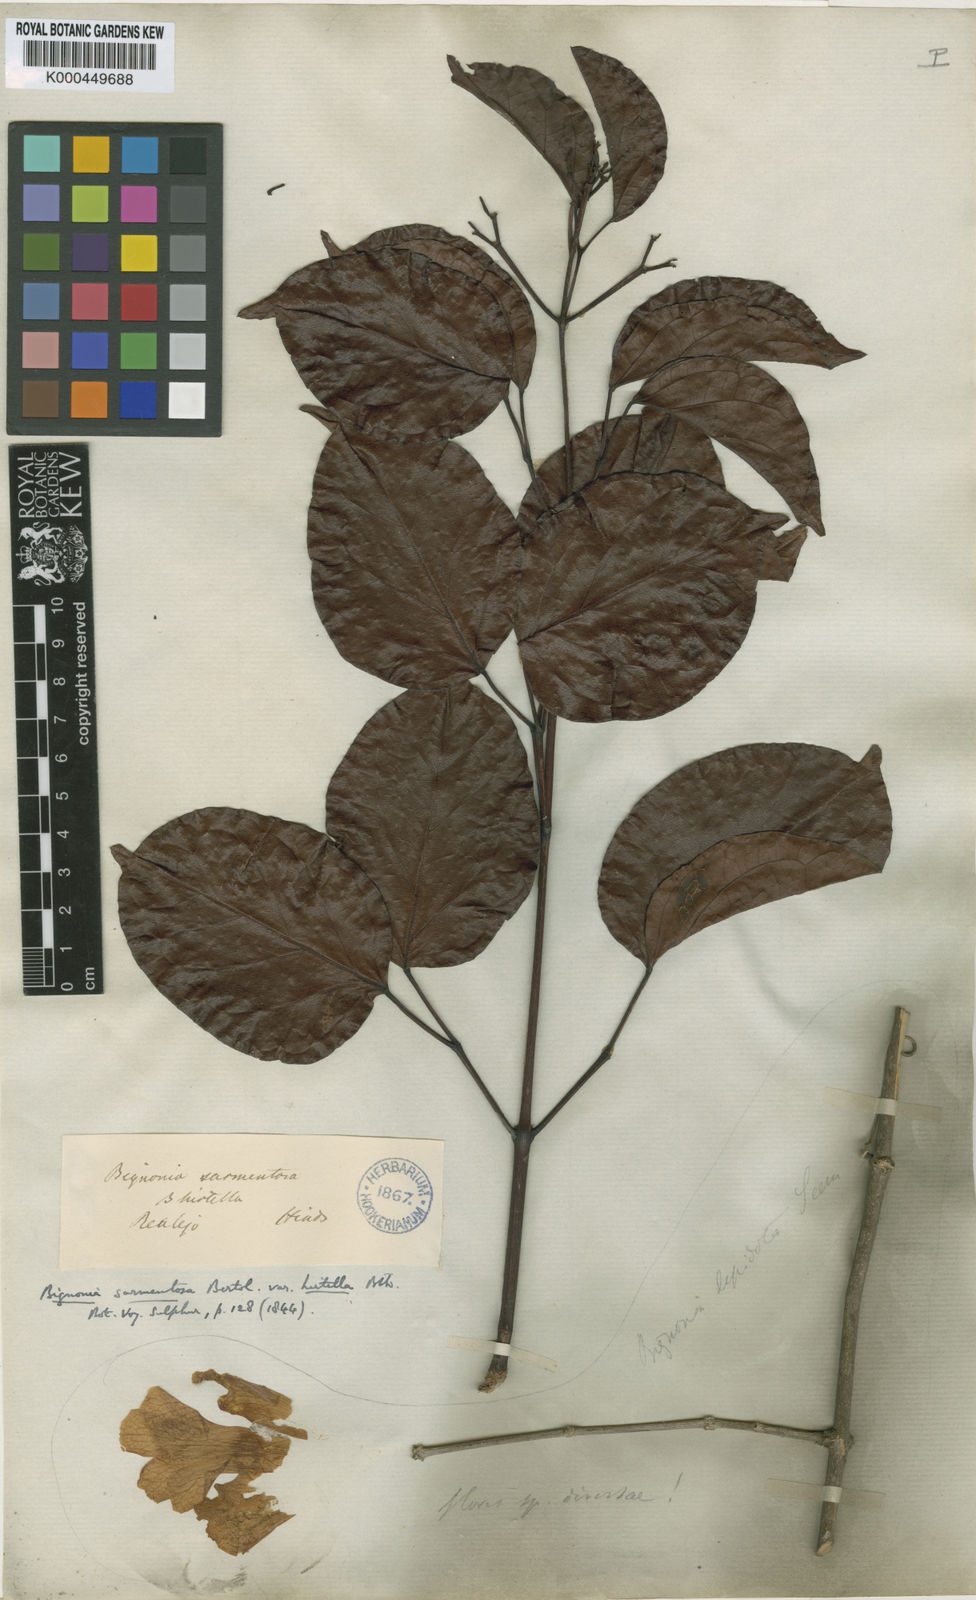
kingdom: Plantae
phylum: Tracheophyta
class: Magnoliopsida
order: Lamiales
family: Bignoniaceae
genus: Bignonia
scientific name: Bignonia aequinoctialis
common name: Garlicvine
